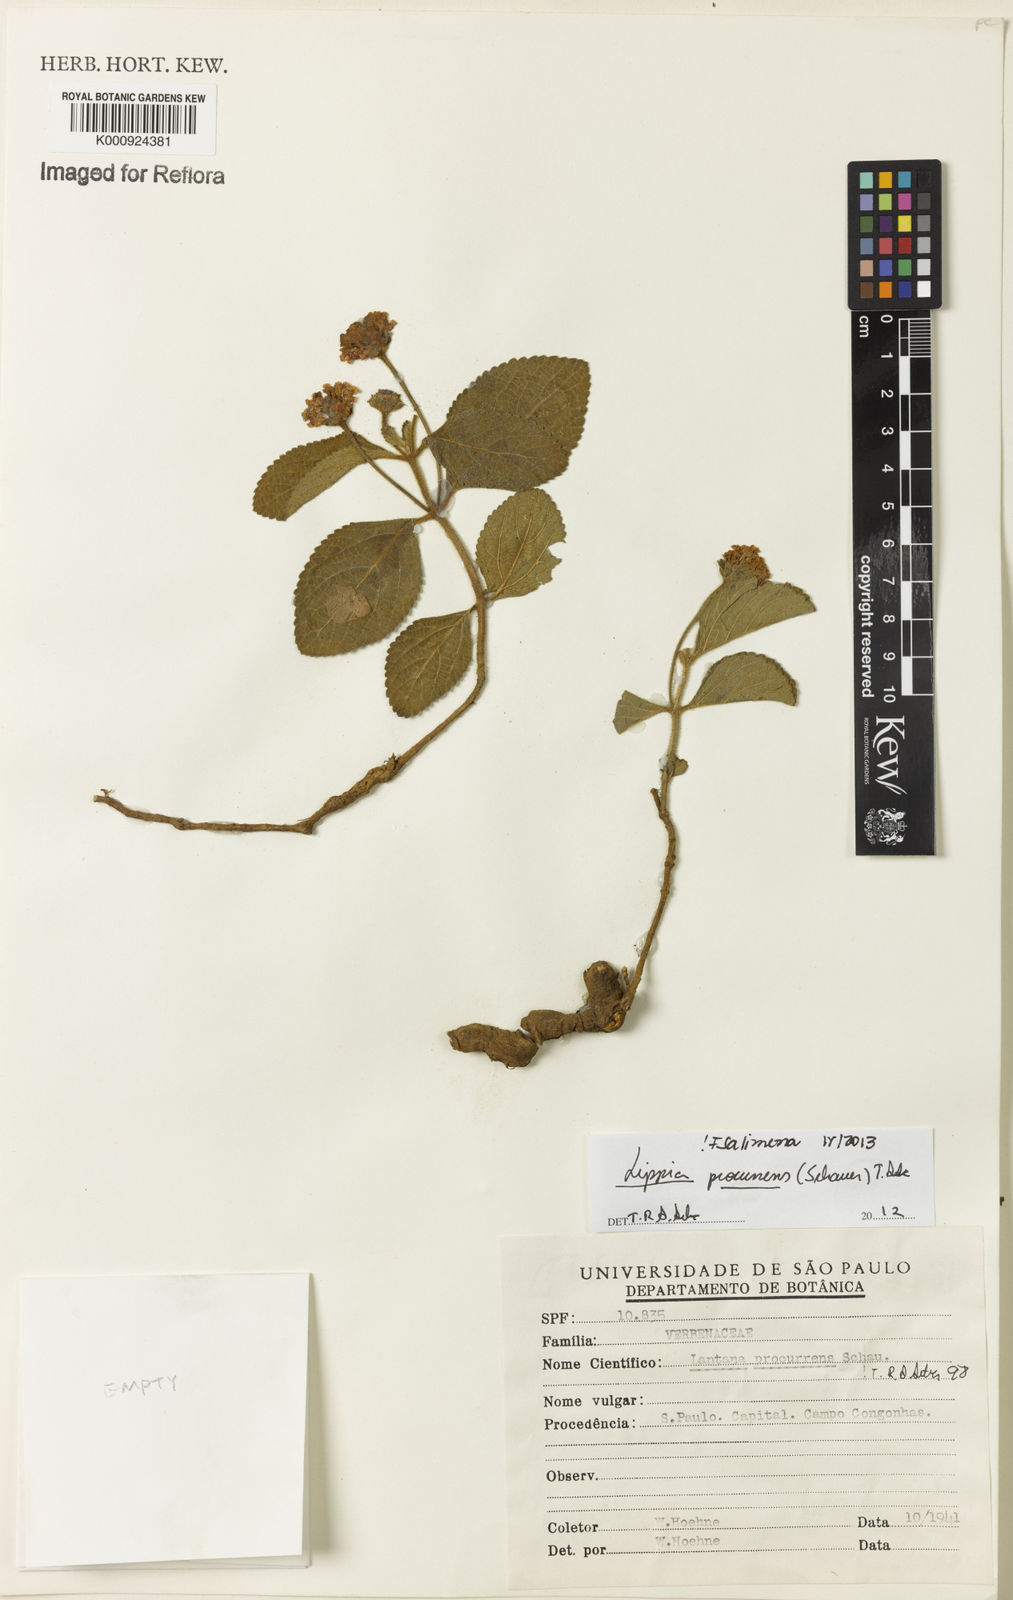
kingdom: Plantae
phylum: Tracheophyta
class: Magnoliopsida
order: Lamiales
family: Verbenaceae
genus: Lippia
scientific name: Lippia procurrens
